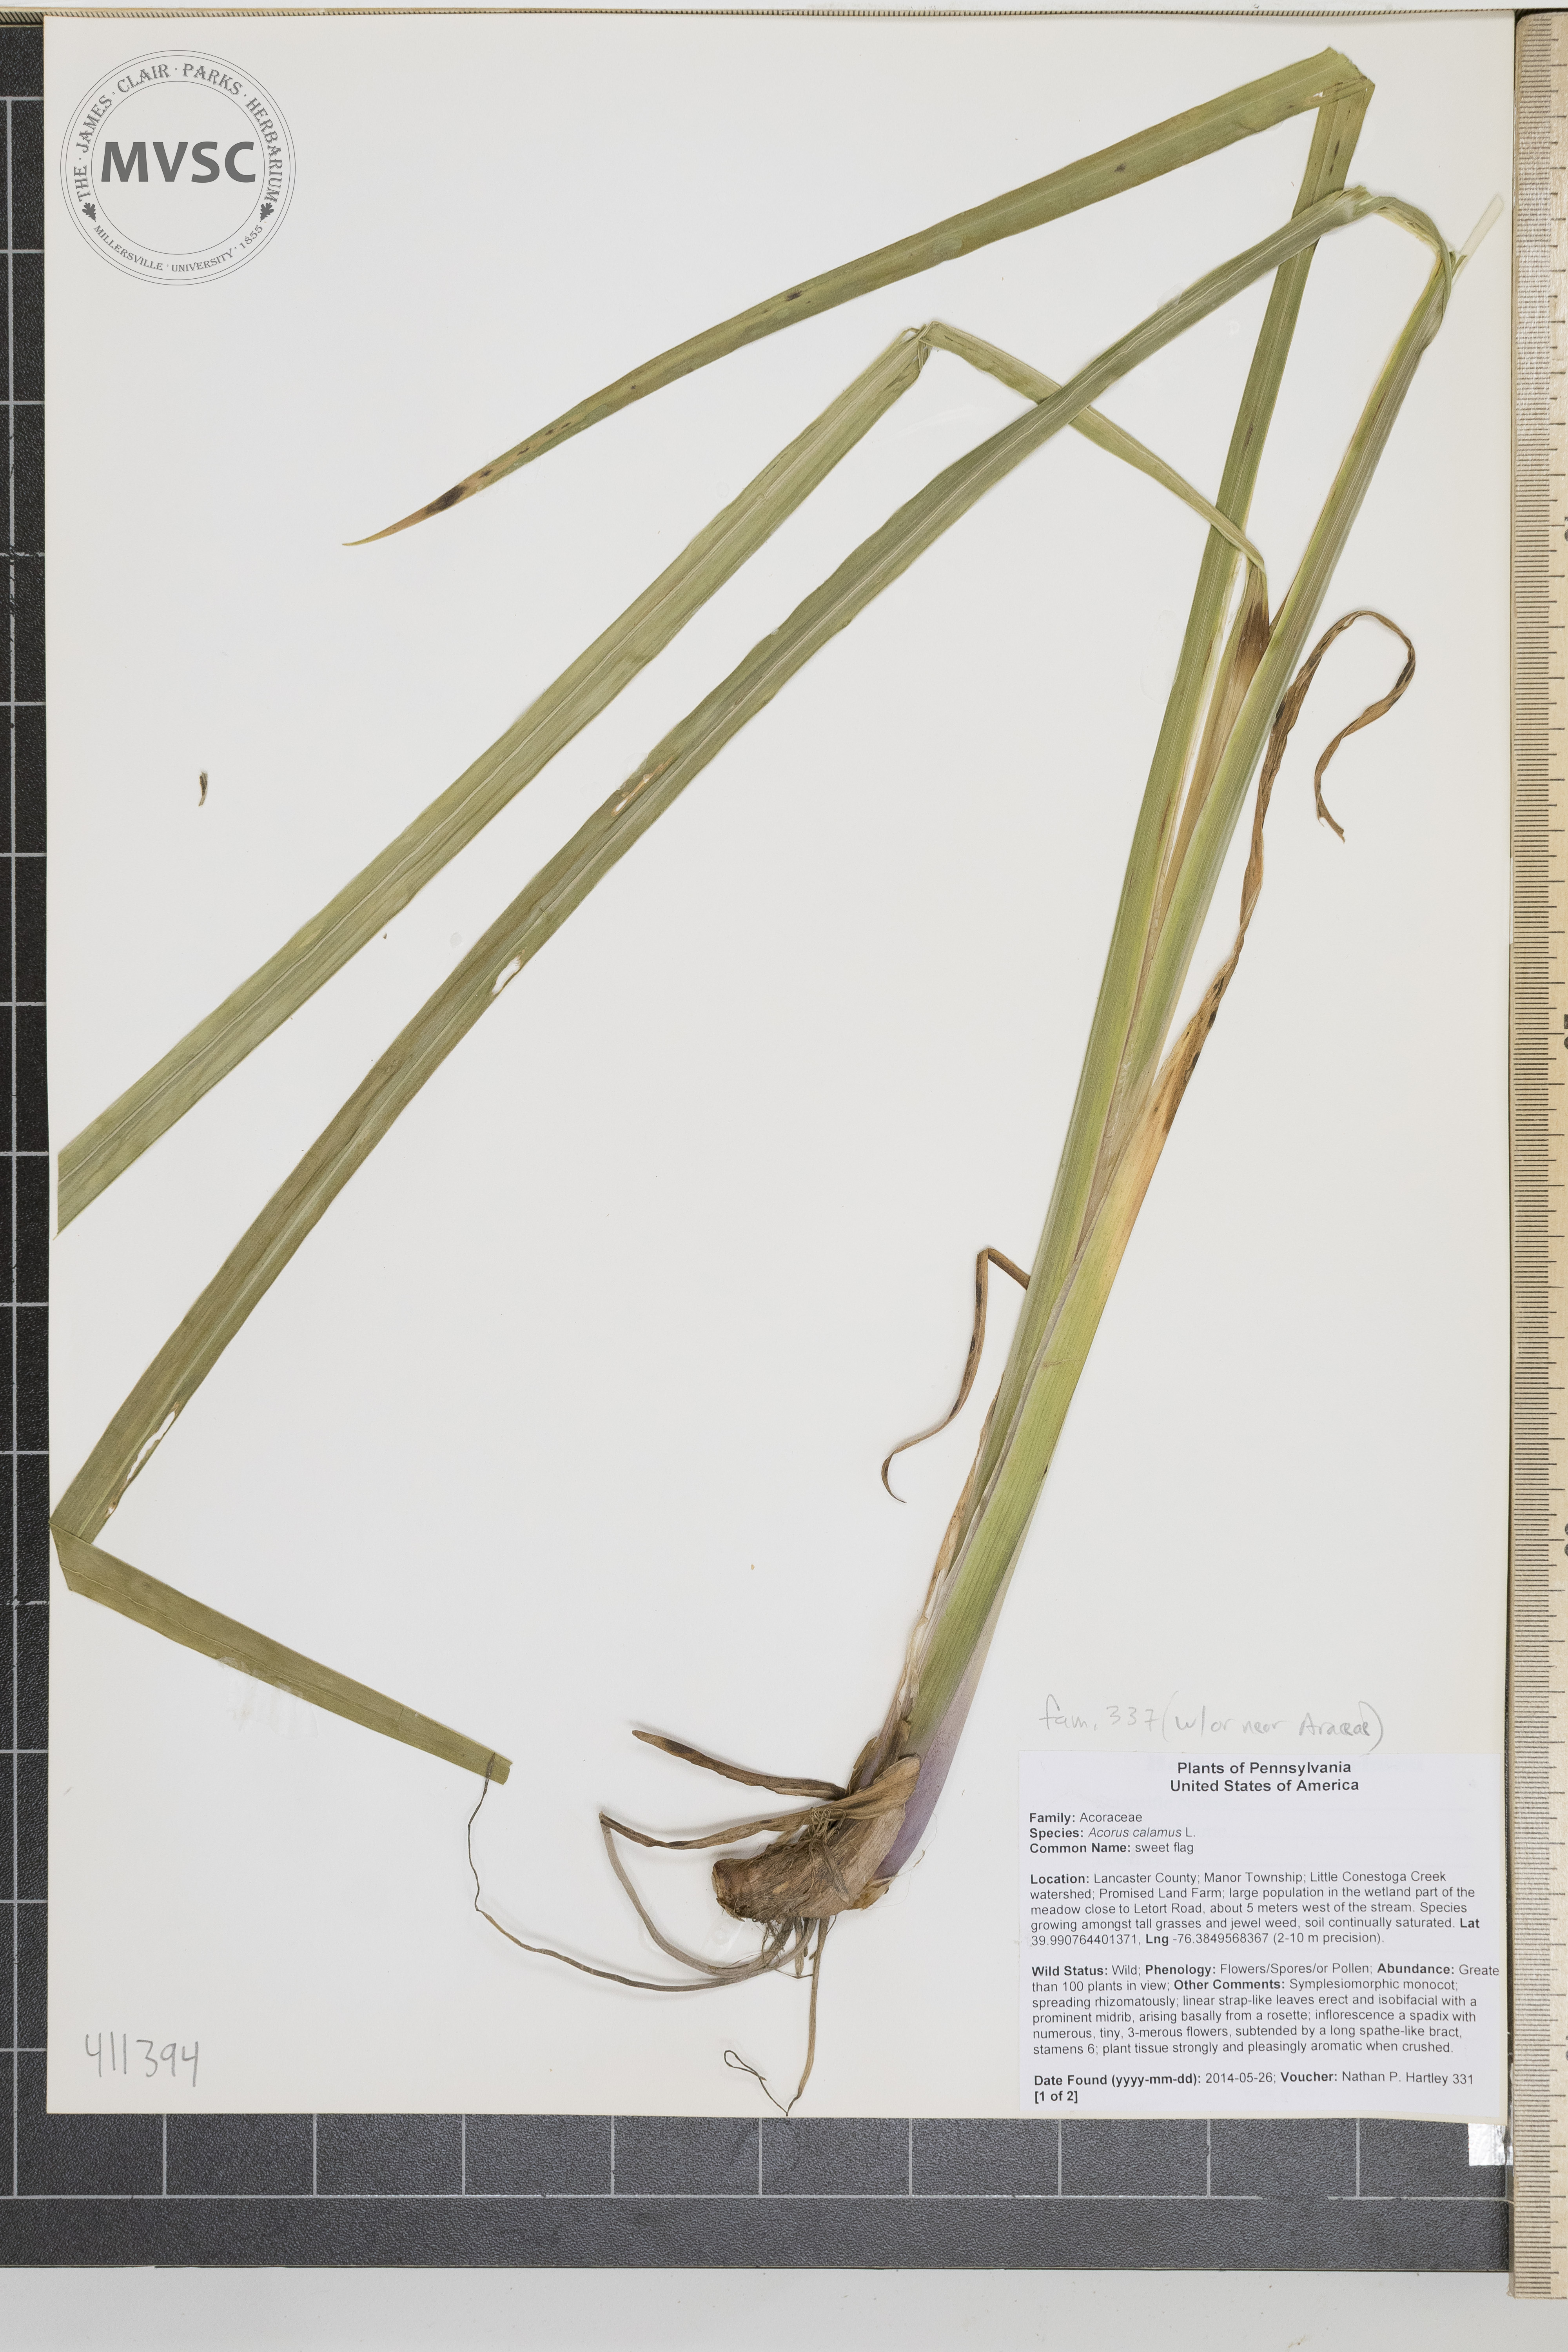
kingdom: Plantae
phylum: Tracheophyta
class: Liliopsida
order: Acorales
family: Acoraceae
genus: Acorus
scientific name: Acorus calamus
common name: sweet flag
